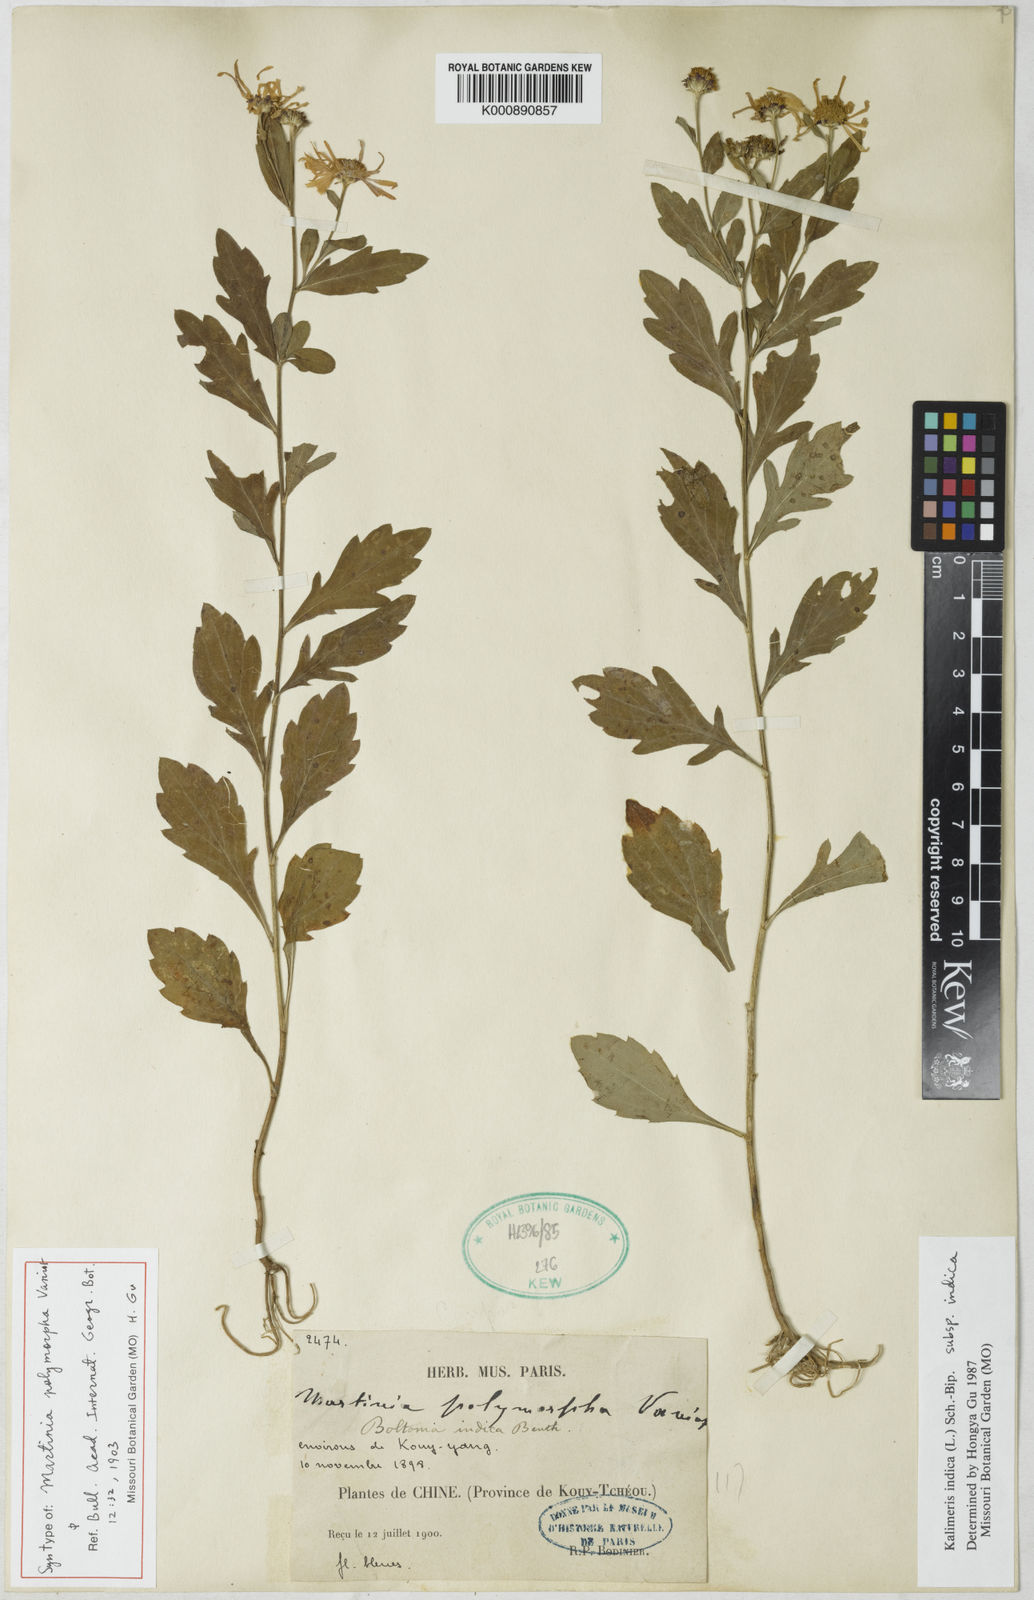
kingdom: Plantae
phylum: Tracheophyta
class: Magnoliopsida
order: Asterales
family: Asteraceae
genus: Kalimeris
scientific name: Kalimeris indica
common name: Indian aster
